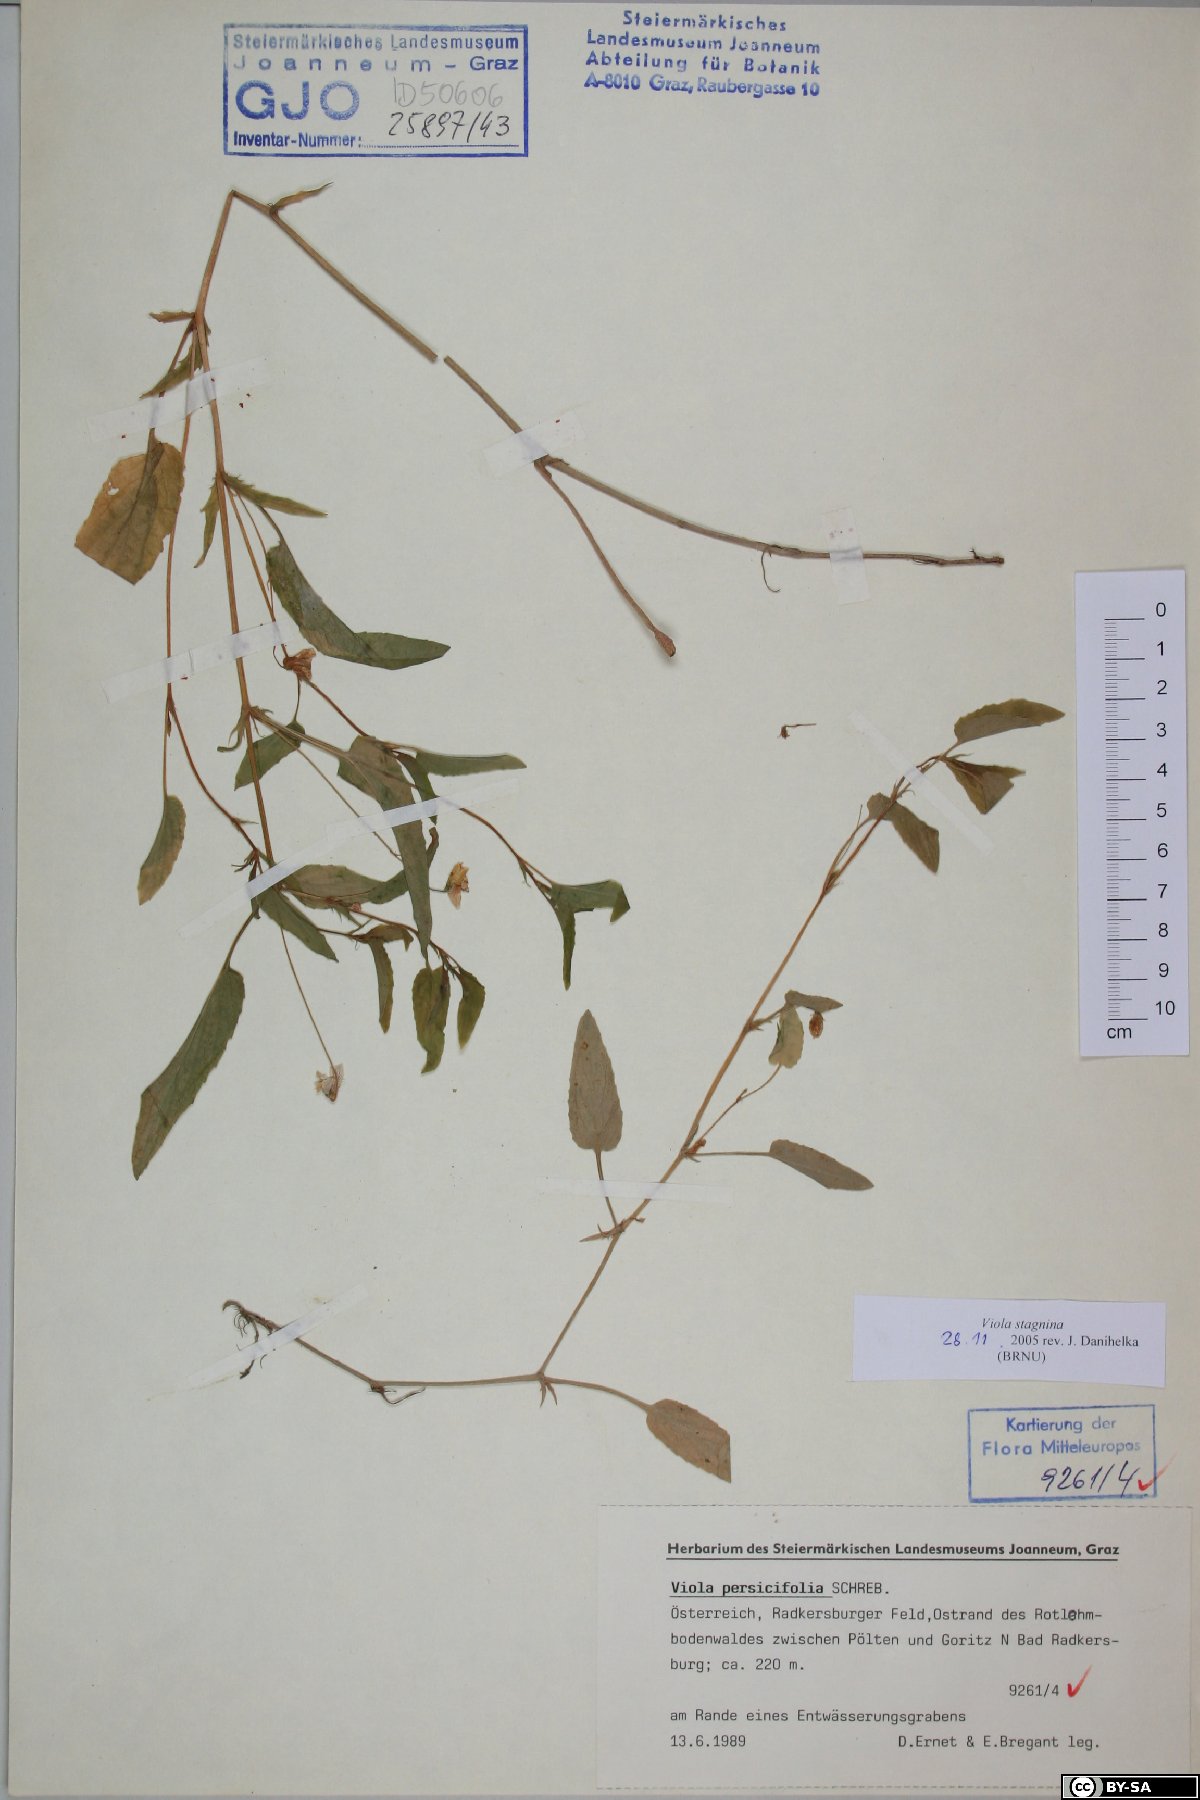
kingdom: Plantae
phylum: Tracheophyta
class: Magnoliopsida
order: Malpighiales
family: Violaceae
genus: Viola
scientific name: Viola stagnina
